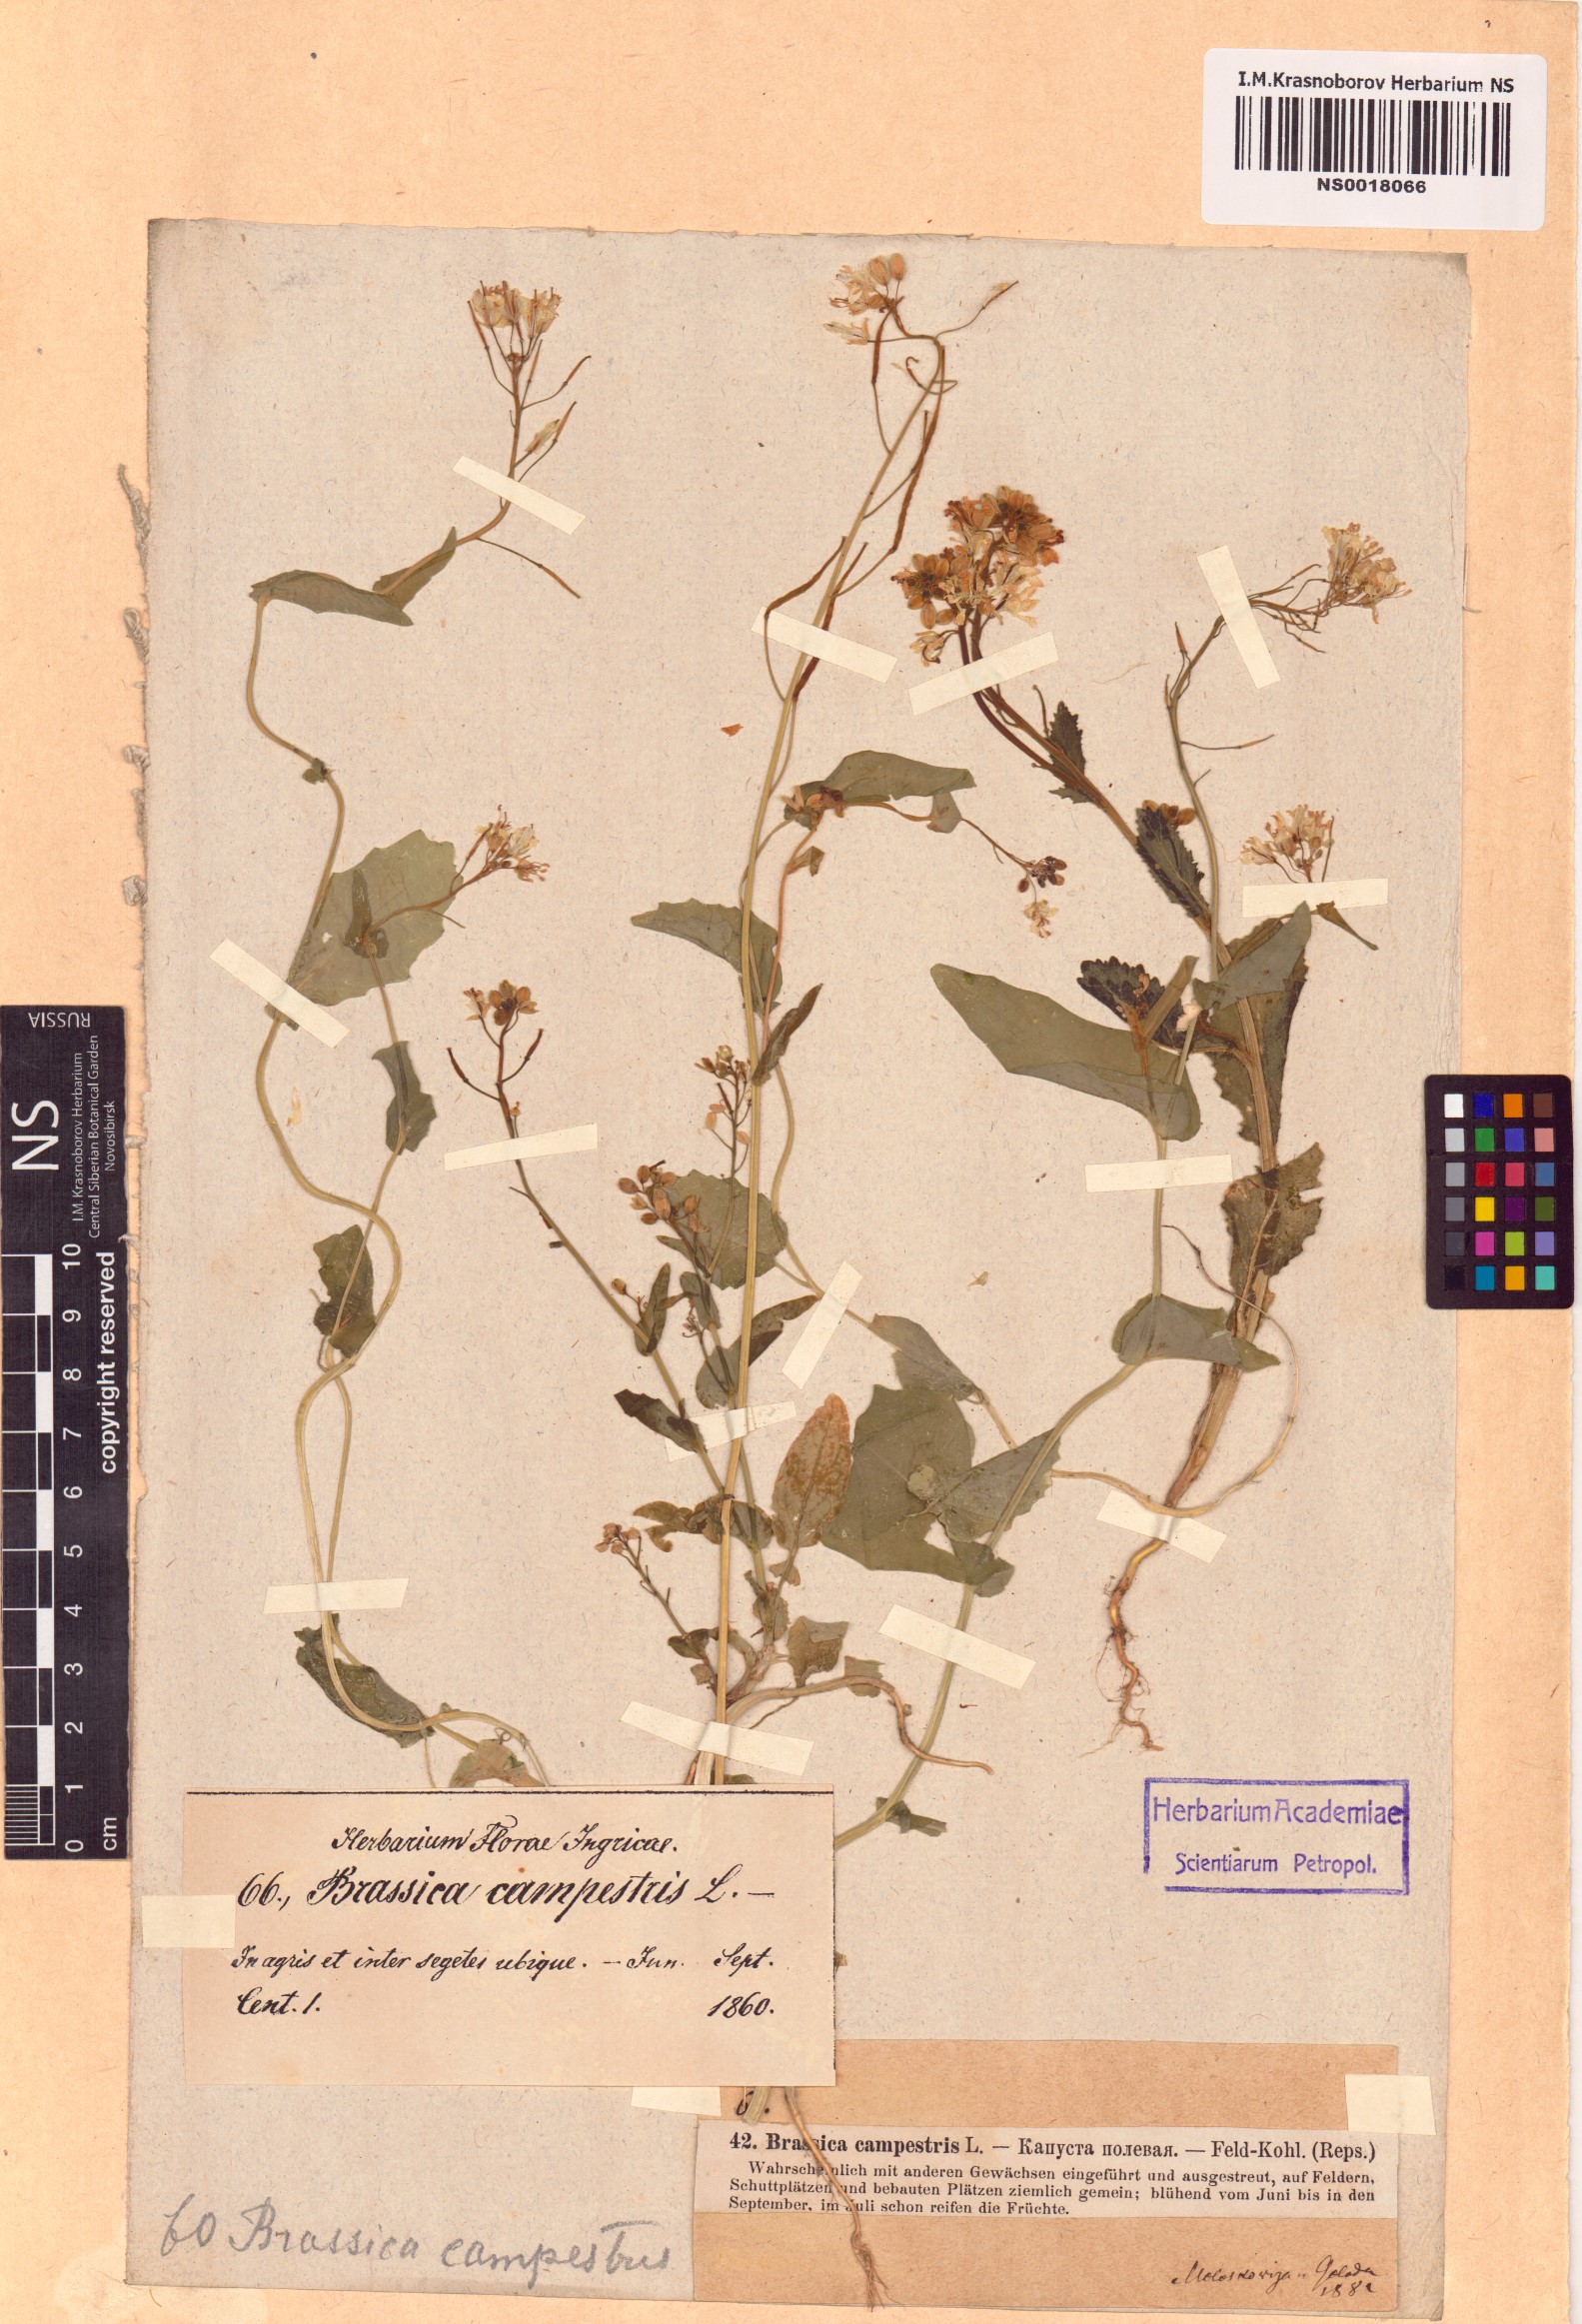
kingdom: Plantae
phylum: Tracheophyta
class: Magnoliopsida
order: Brassicales
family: Brassicaceae
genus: Brassica
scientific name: Brassica rapa
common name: Field mustard
